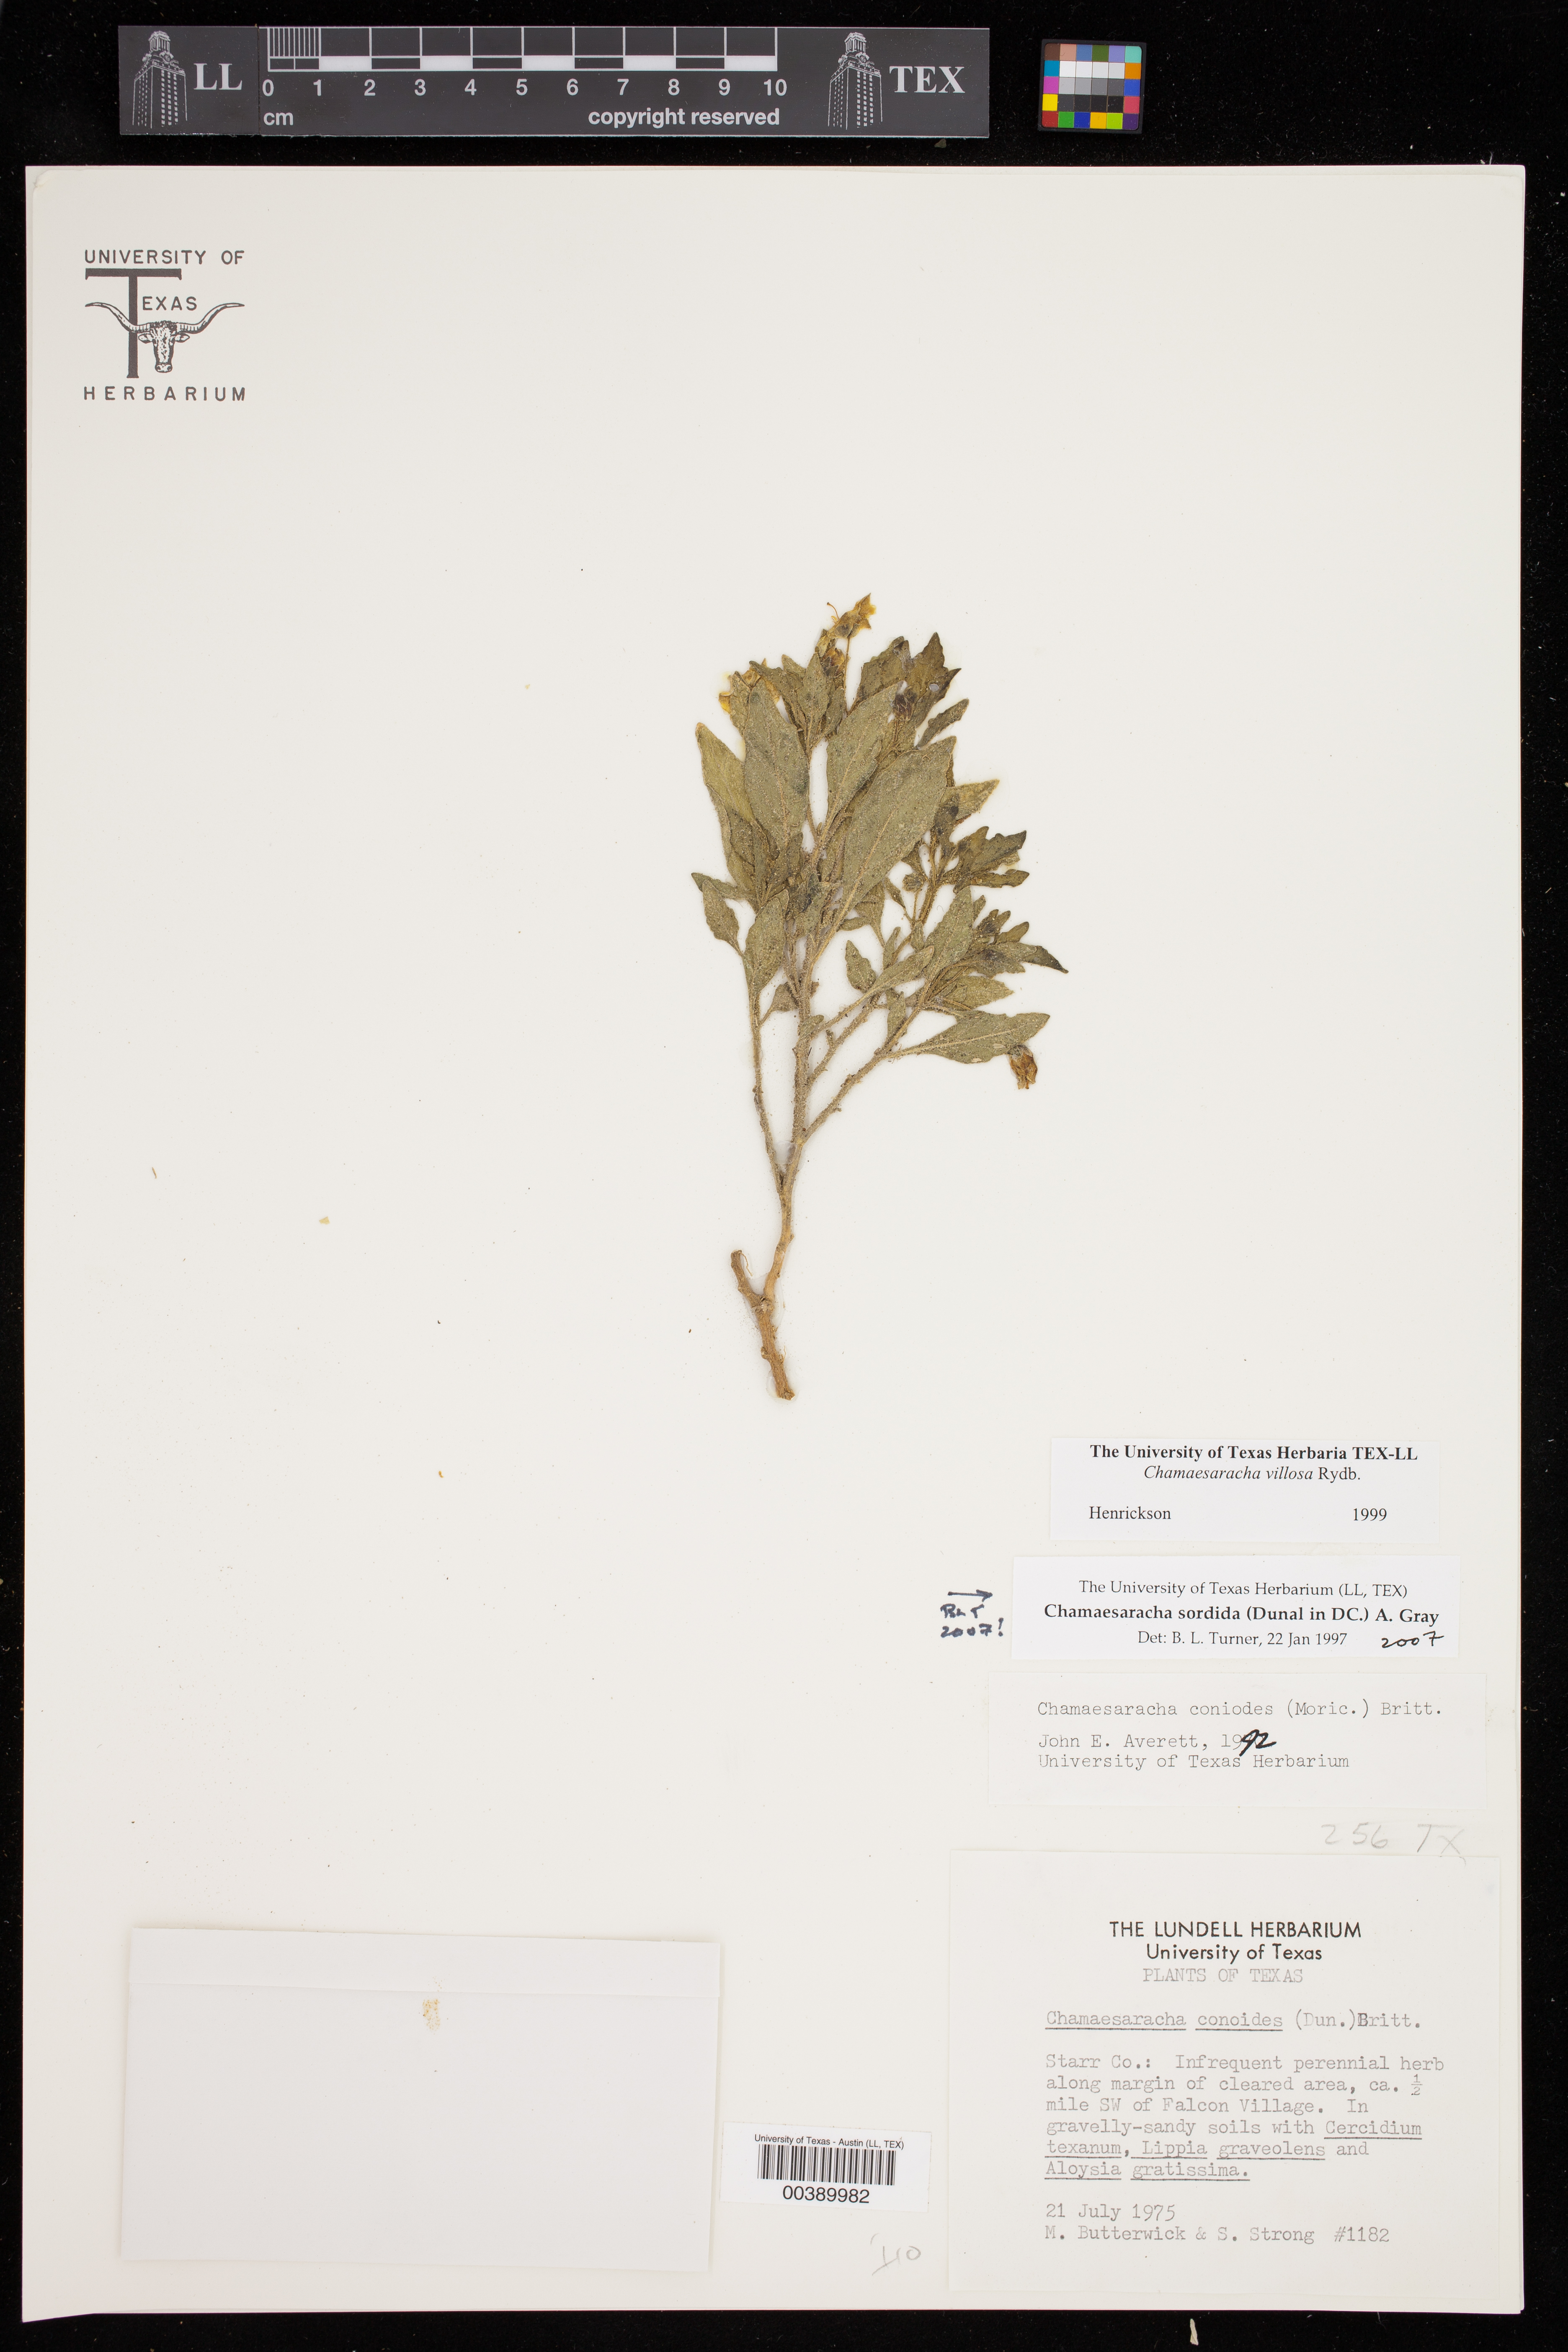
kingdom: Plantae
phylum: Tracheophyta
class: Magnoliopsida
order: Solanales
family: Solanaceae
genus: Chamaesaracha
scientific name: Chamaesaracha sordida
